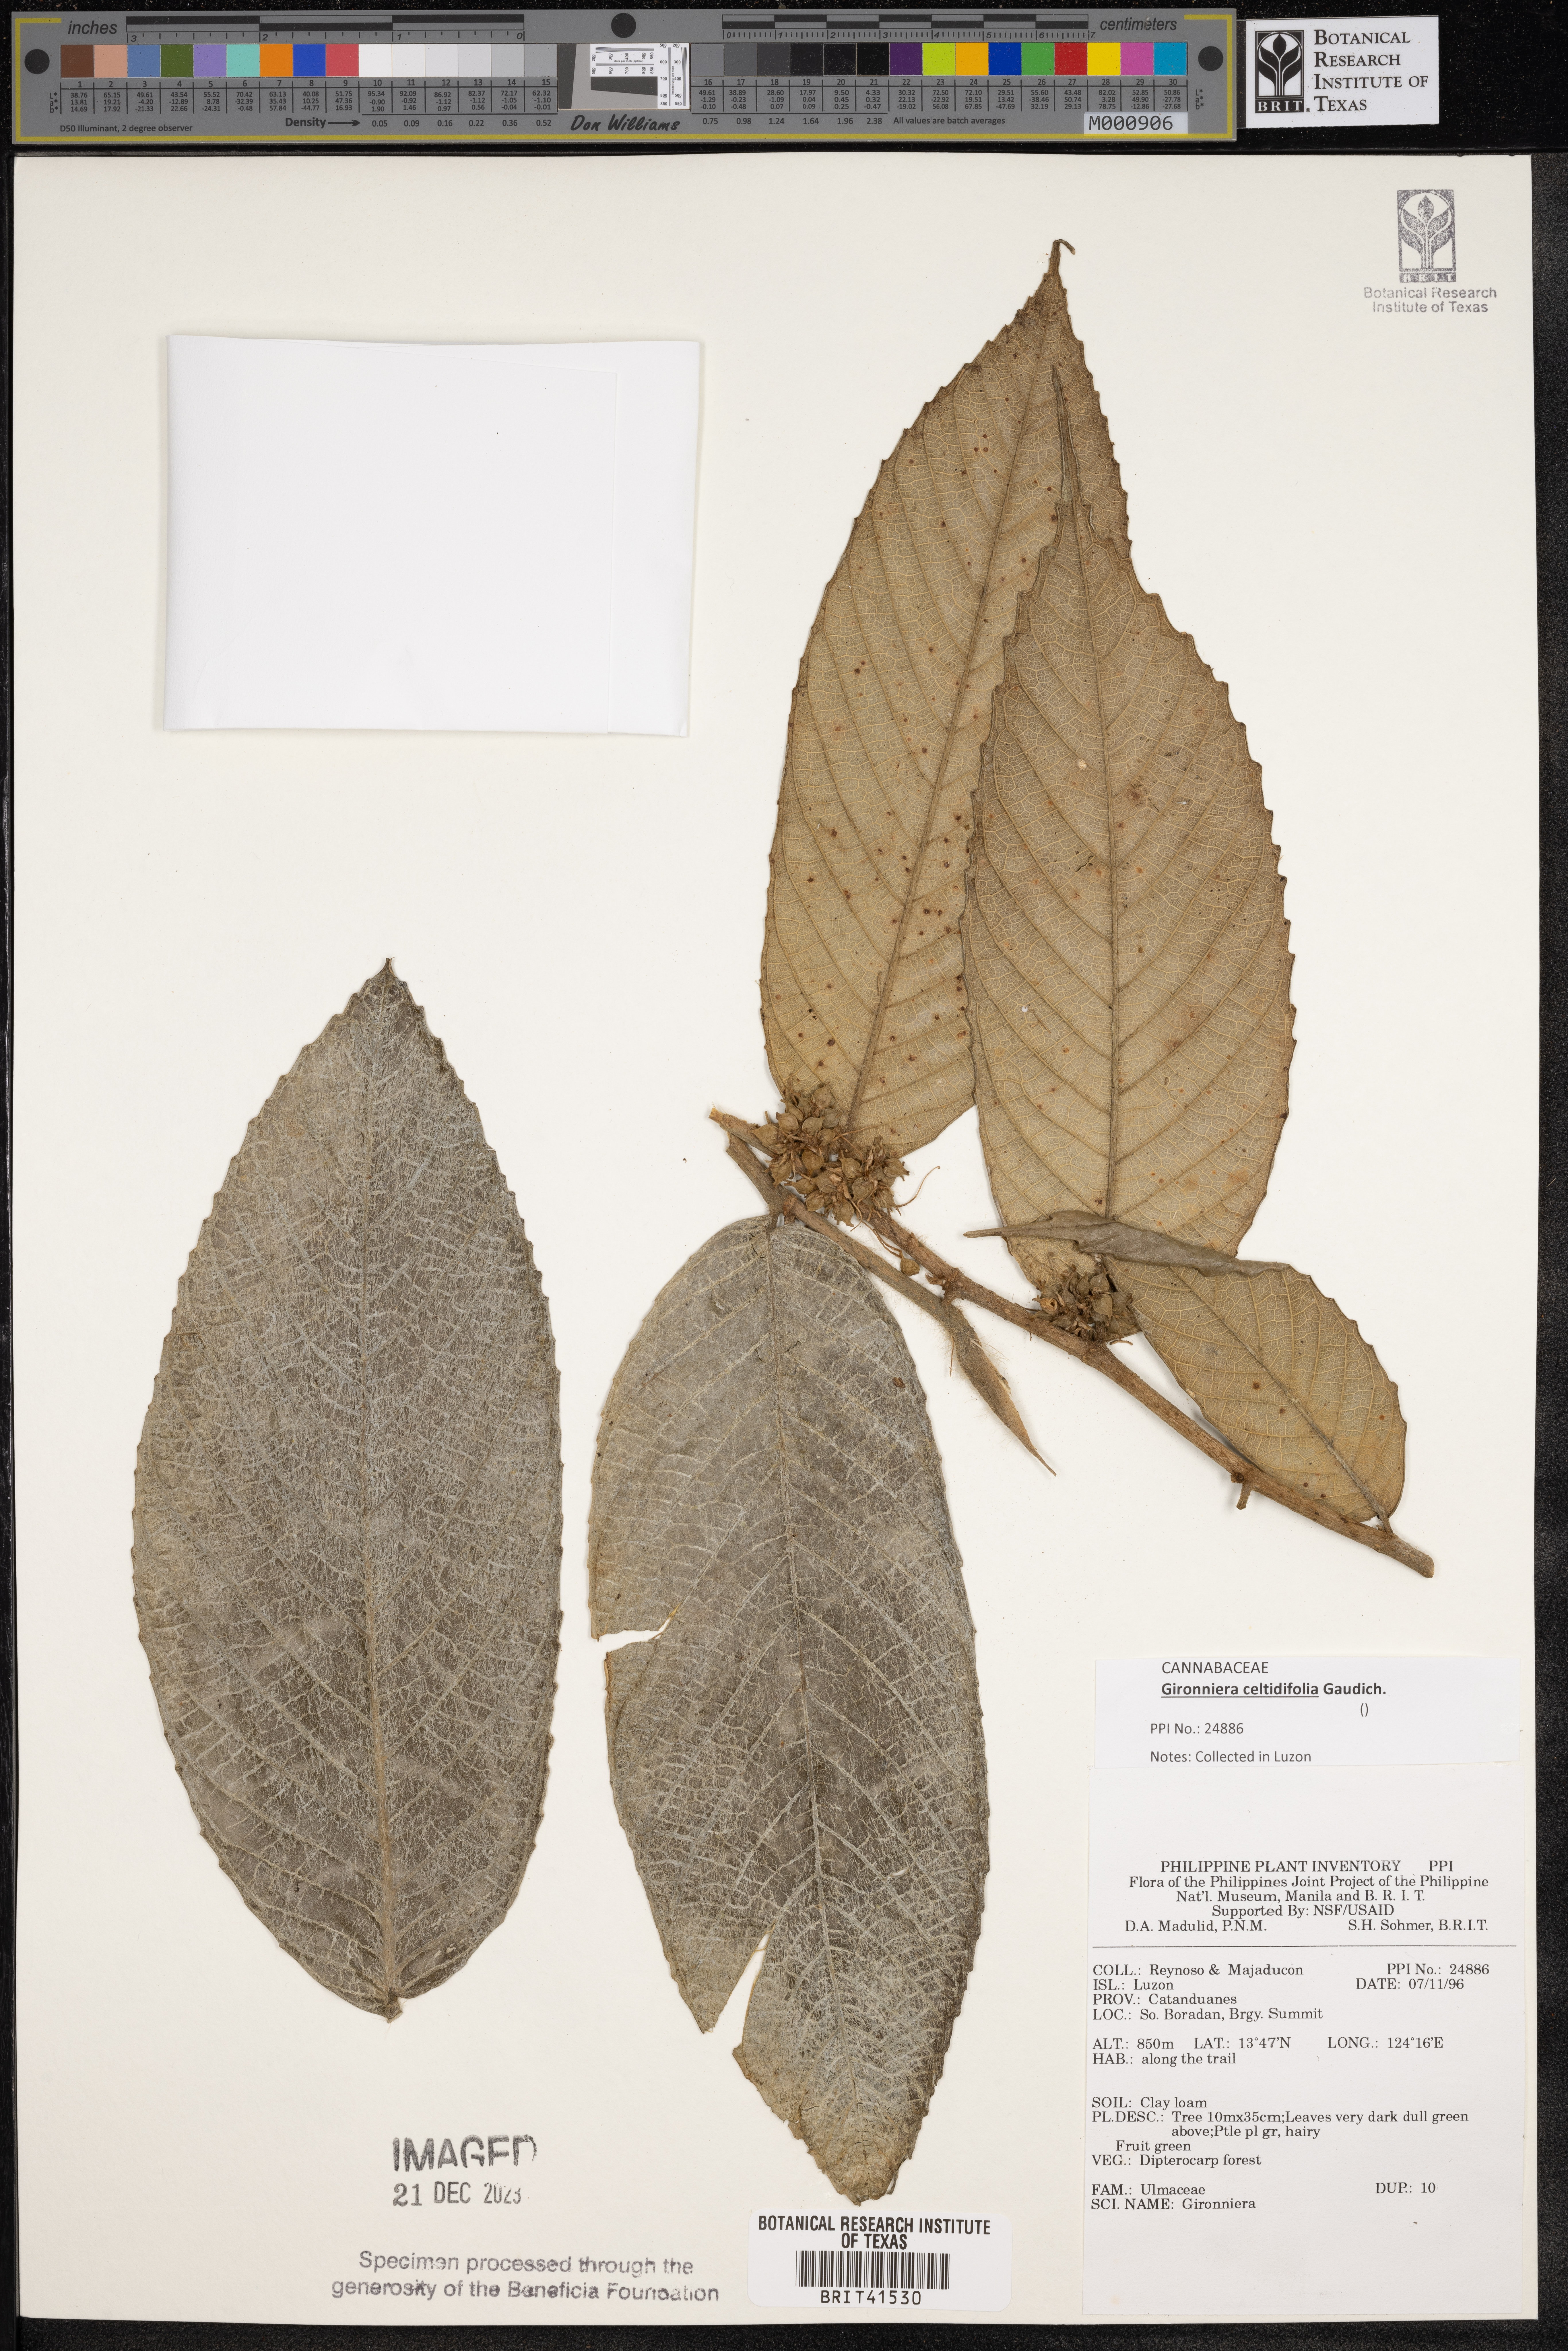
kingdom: Plantae
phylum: Tracheophyta
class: Magnoliopsida
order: Rosales
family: Cannabaceae
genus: Gironniera
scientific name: Gironniera
